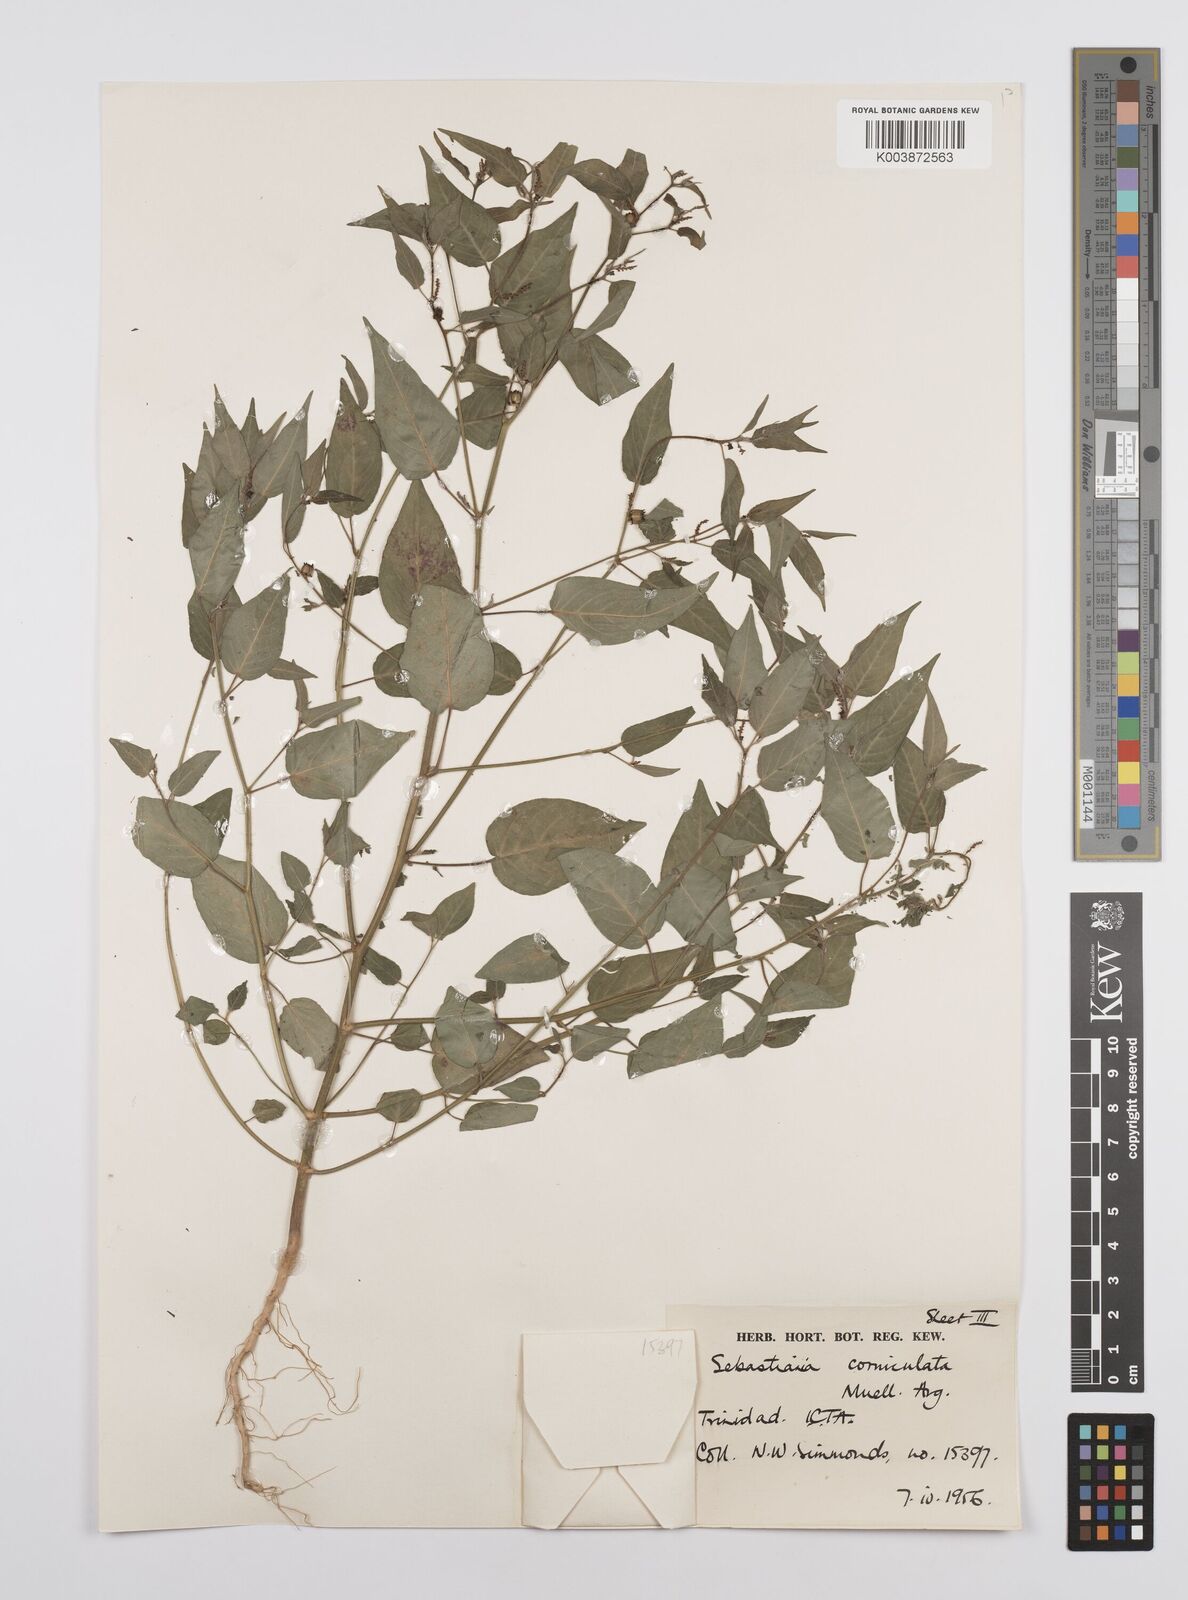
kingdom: Plantae
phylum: Tracheophyta
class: Magnoliopsida
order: Malpighiales
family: Euphorbiaceae
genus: Microstachys
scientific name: Microstachys corniculata
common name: Hato tejas
